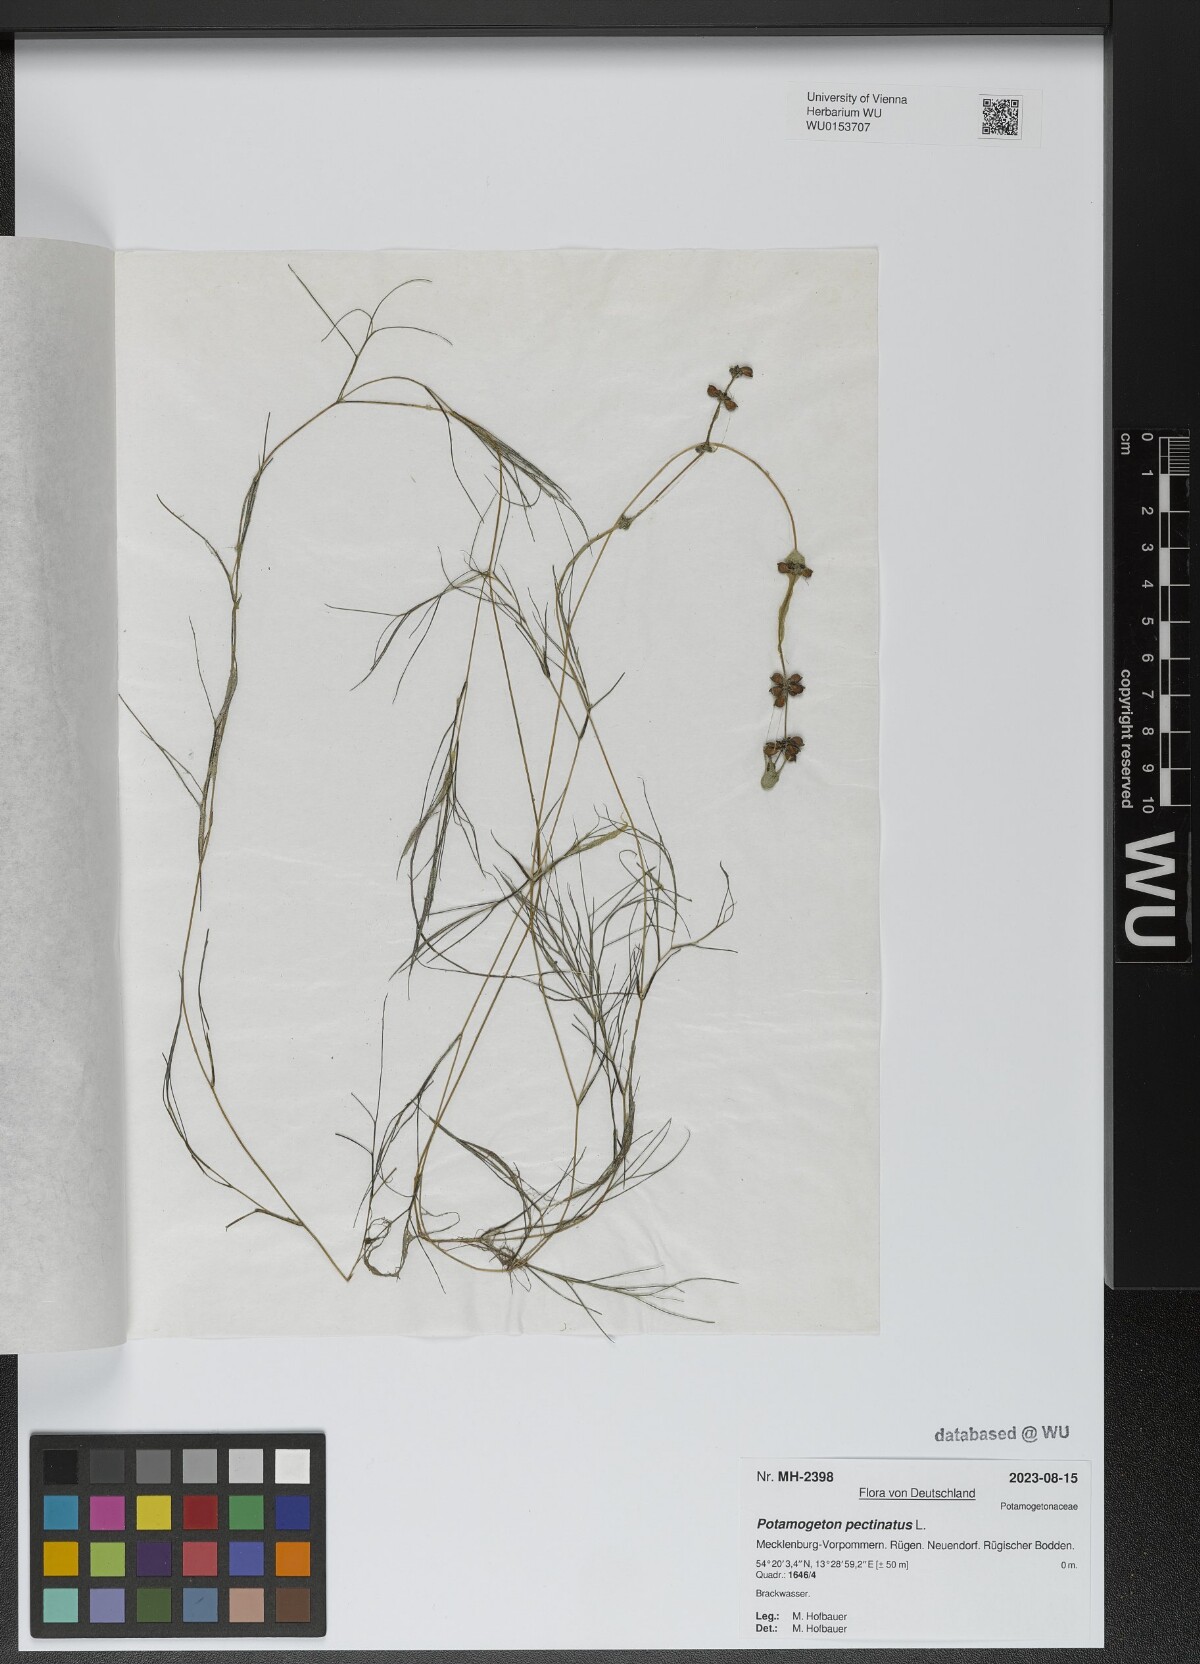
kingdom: Plantae
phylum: Tracheophyta
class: Liliopsida
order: Alismatales
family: Potamogetonaceae
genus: Stuckenia
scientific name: Stuckenia pectinata
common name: Sago pondweed
